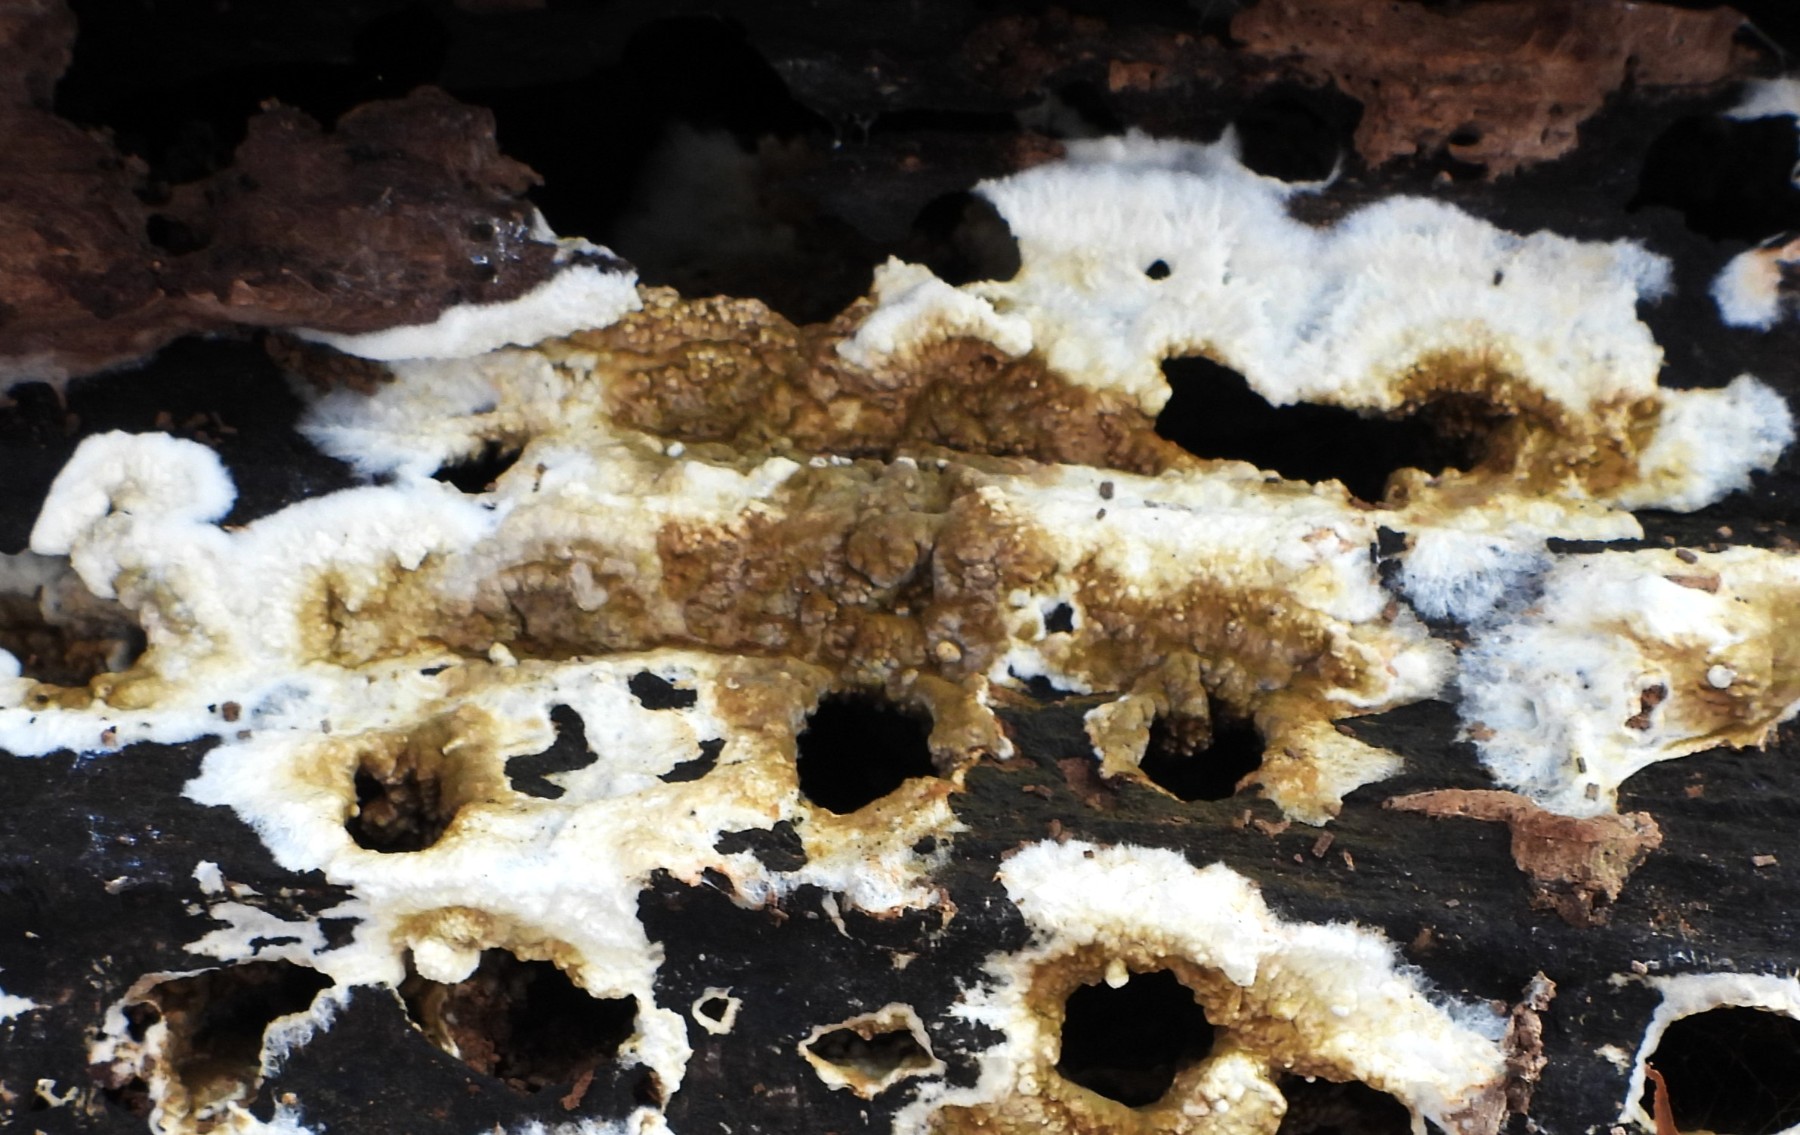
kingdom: Fungi
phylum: Basidiomycota
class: Agaricomycetes
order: Boletales
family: Coniophoraceae
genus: Coniophora
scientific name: Coniophora puteana
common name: gul tømmersvamp
